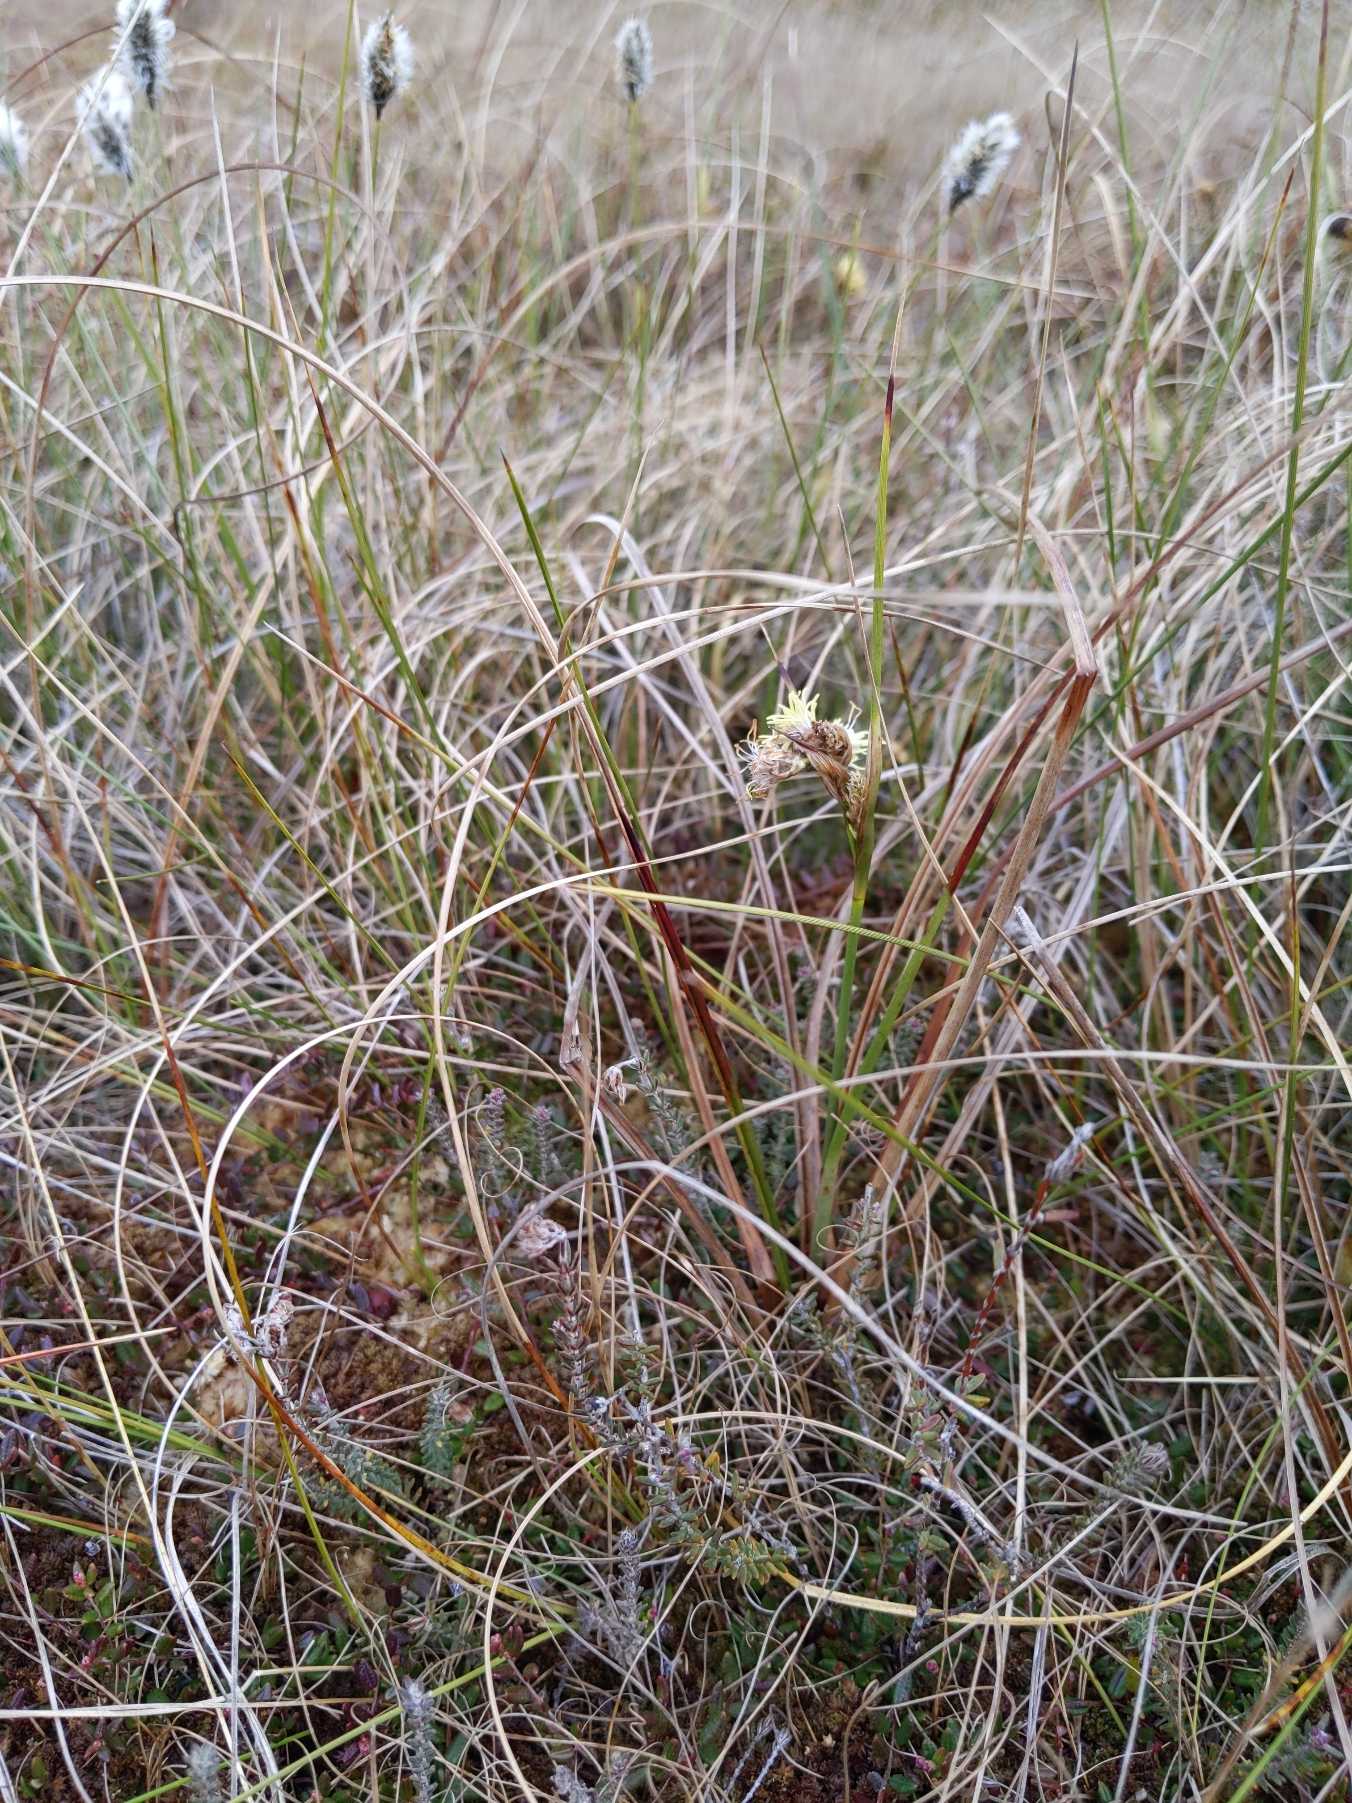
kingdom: Plantae
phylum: Tracheophyta
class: Liliopsida
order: Poales
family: Cyperaceae
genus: Eriophorum
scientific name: Eriophorum angustifolium
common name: Smalbladet kæruld
